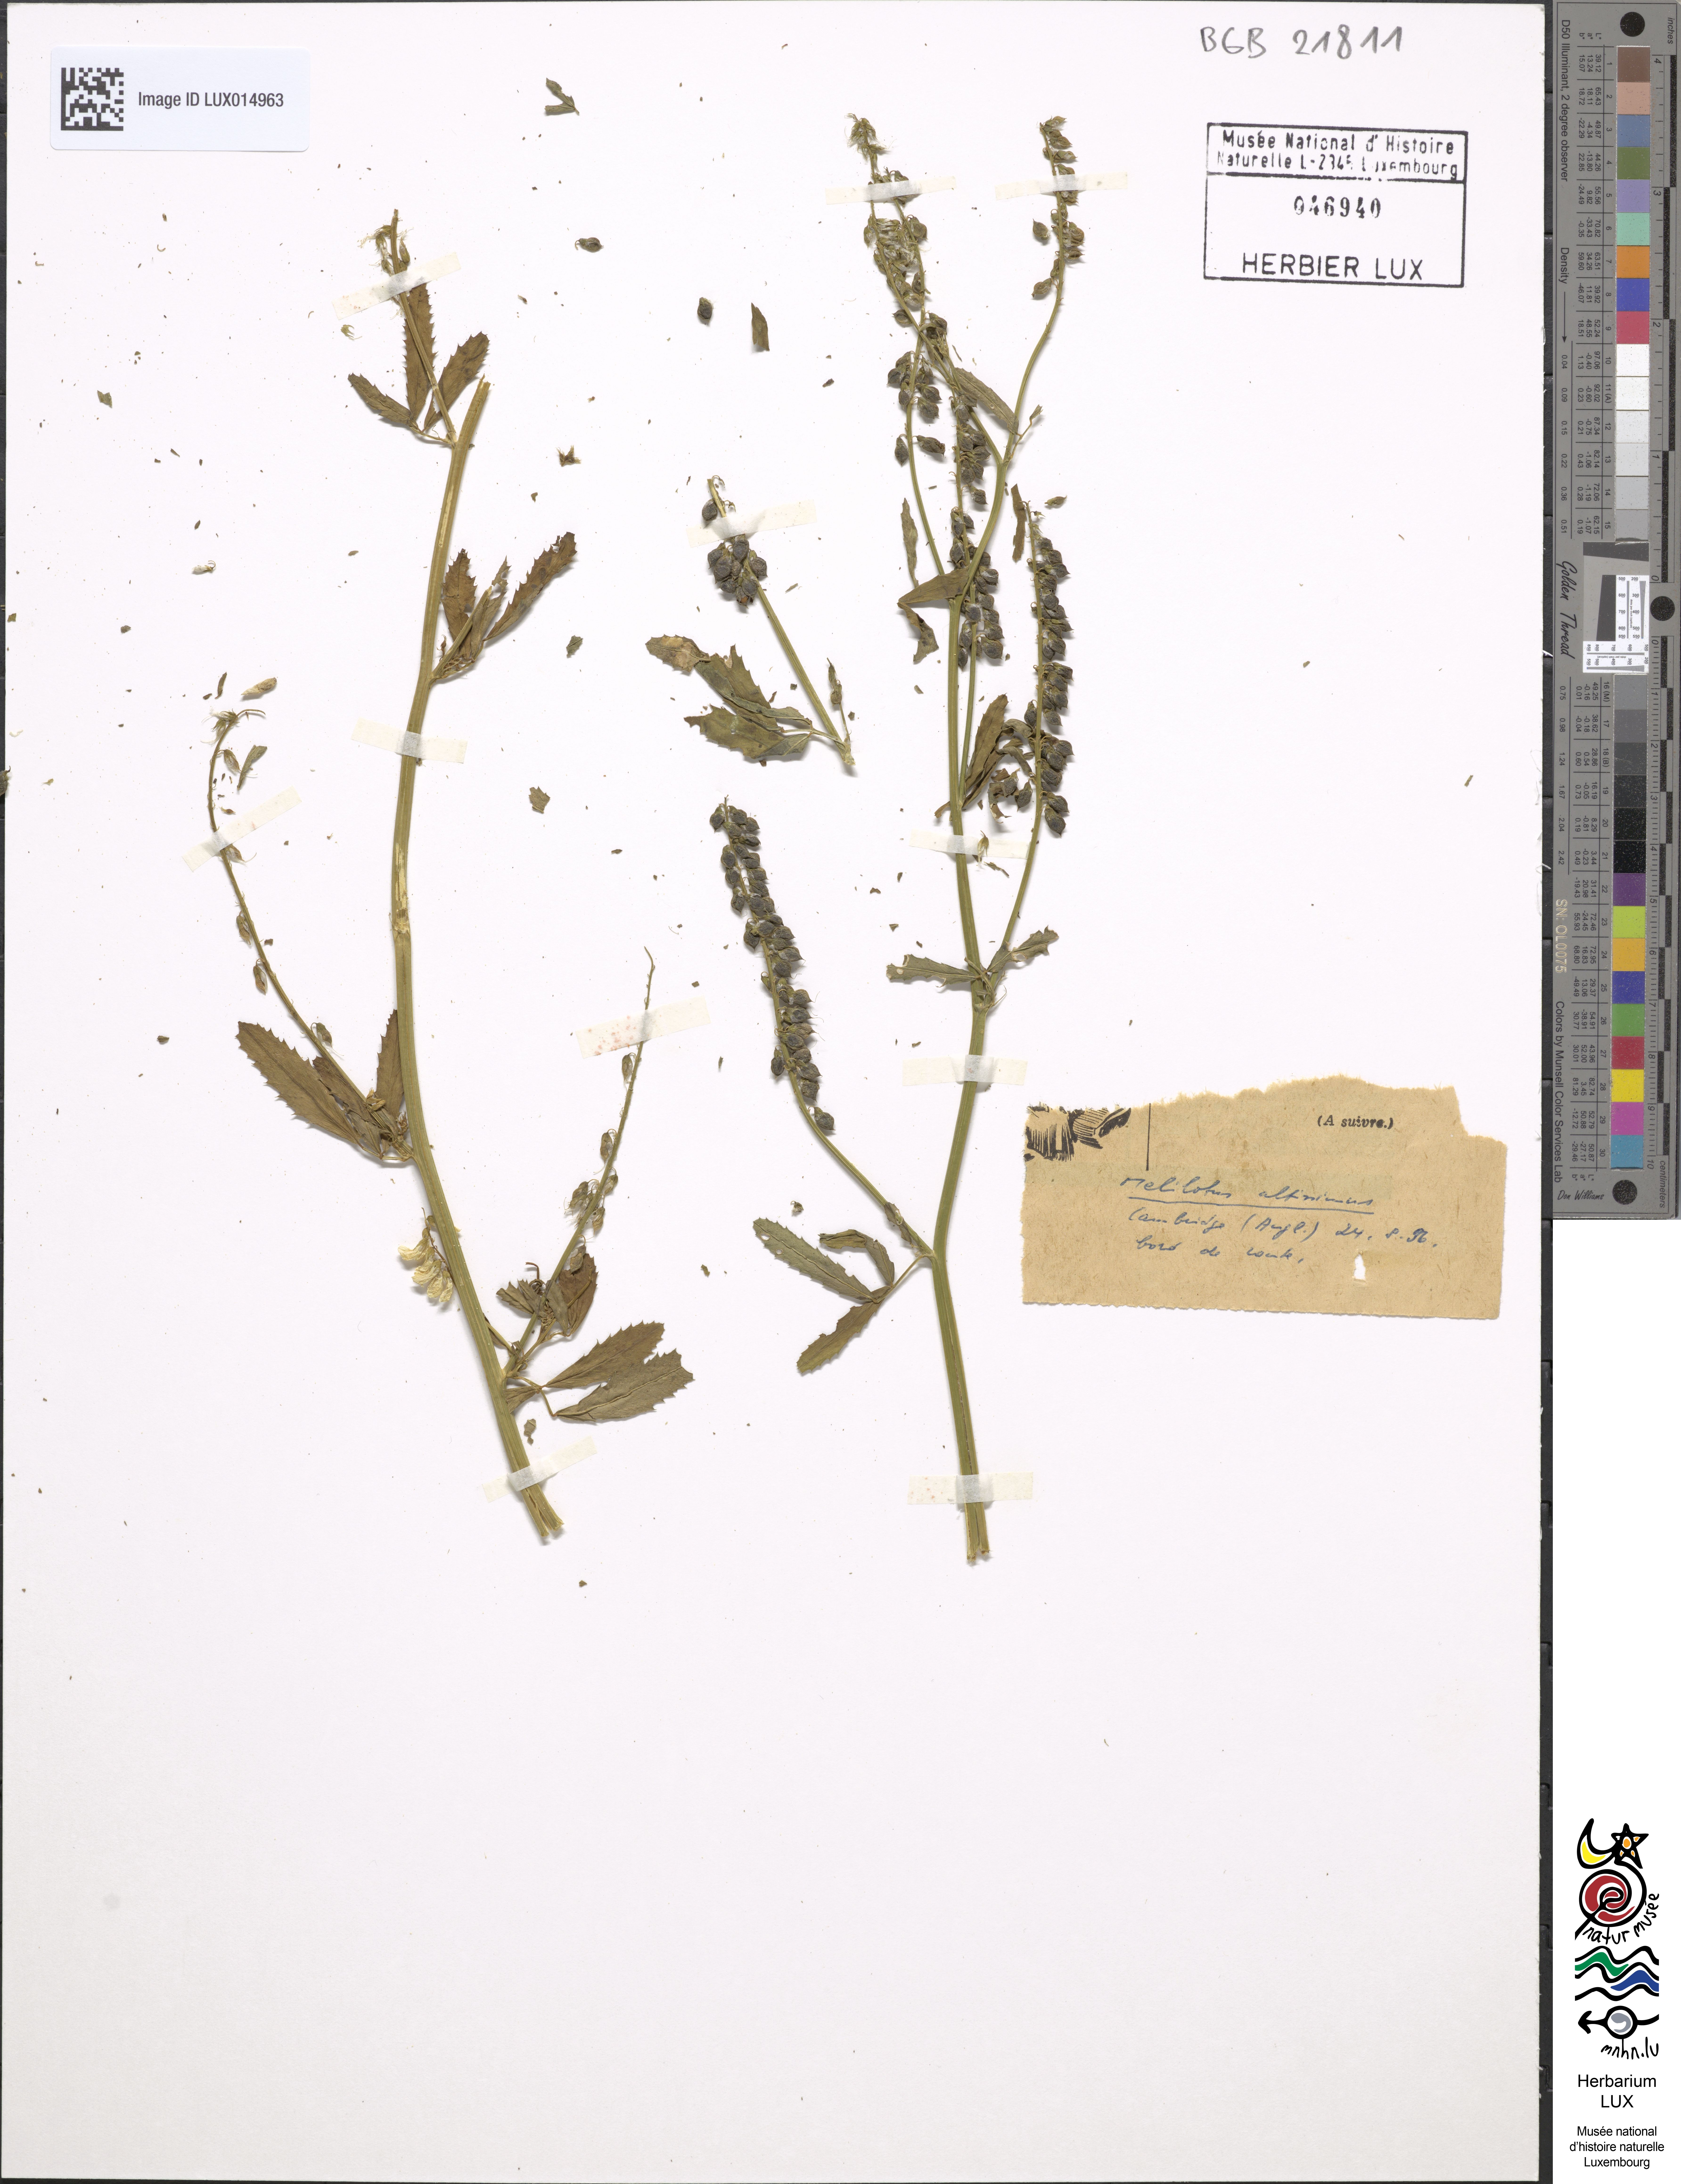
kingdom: Plantae
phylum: Tracheophyta
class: Magnoliopsida
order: Fabales
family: Fabaceae
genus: Melilotus
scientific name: Melilotus altissimus
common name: Tall melilot
